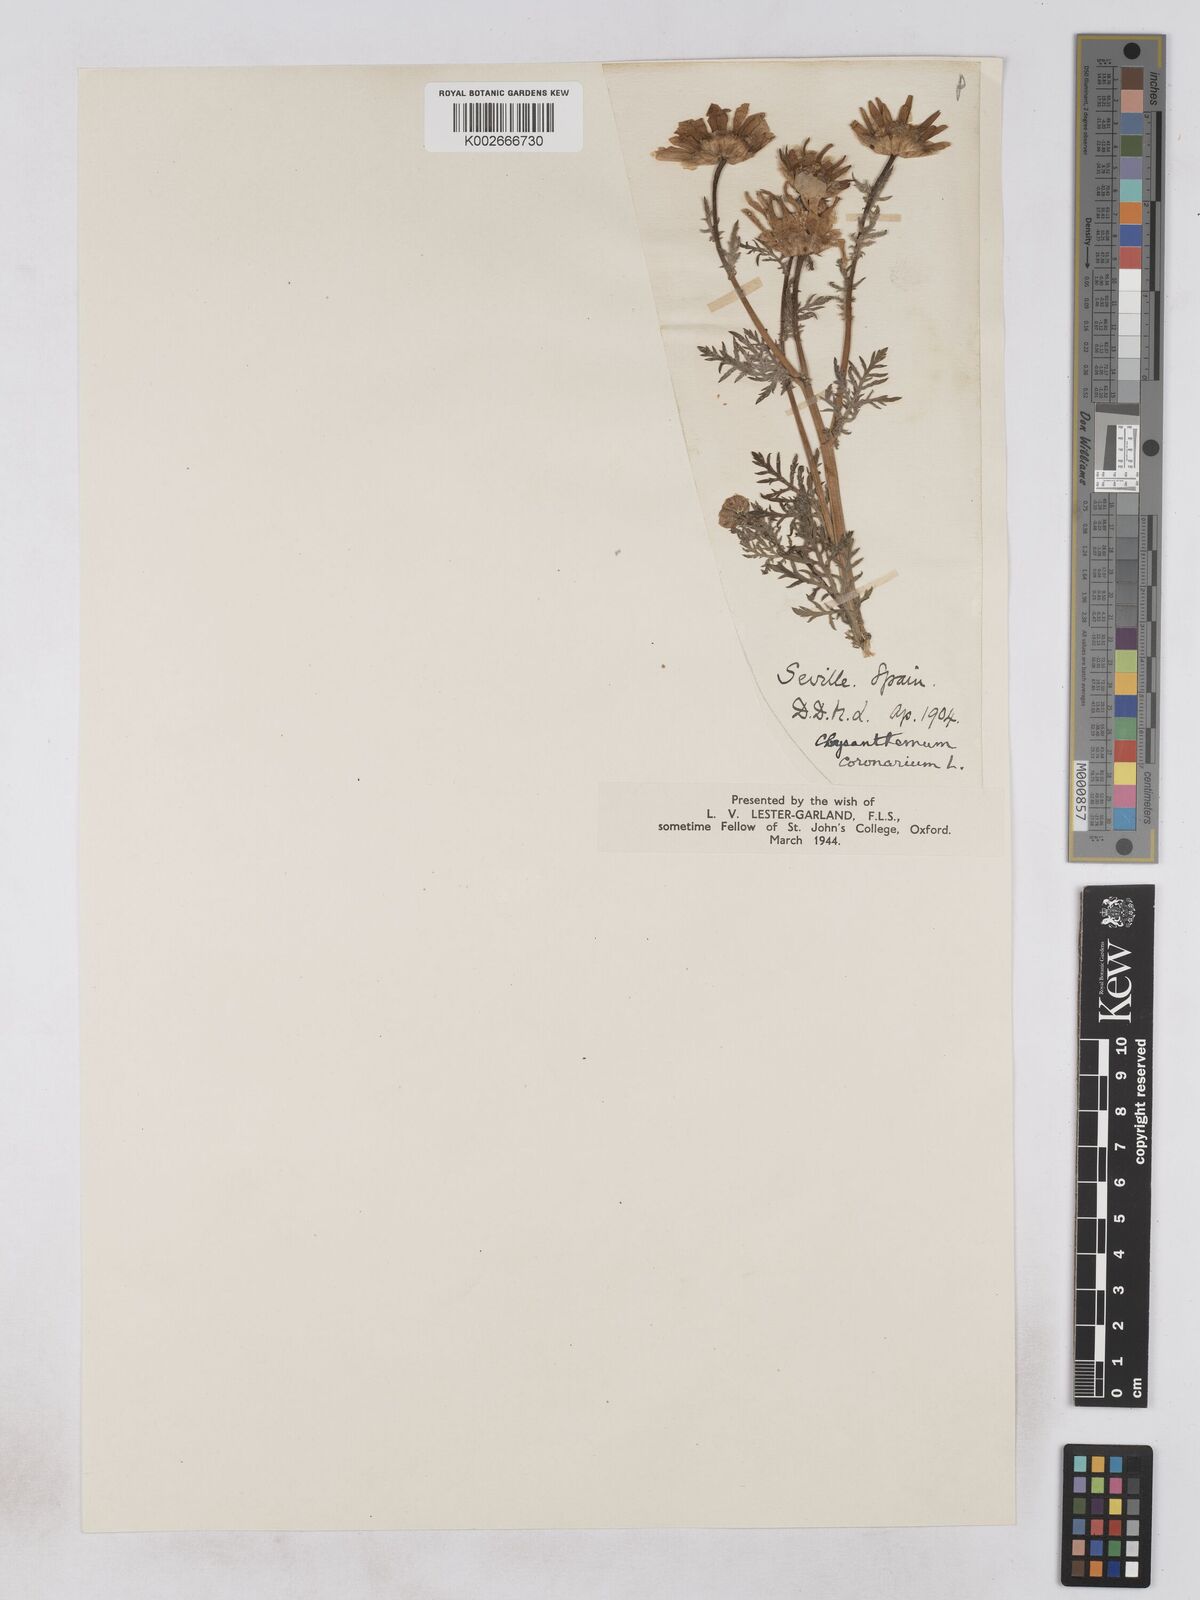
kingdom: Plantae
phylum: Tracheophyta
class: Magnoliopsida
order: Asterales
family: Asteraceae
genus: Glebionis
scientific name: Glebionis
